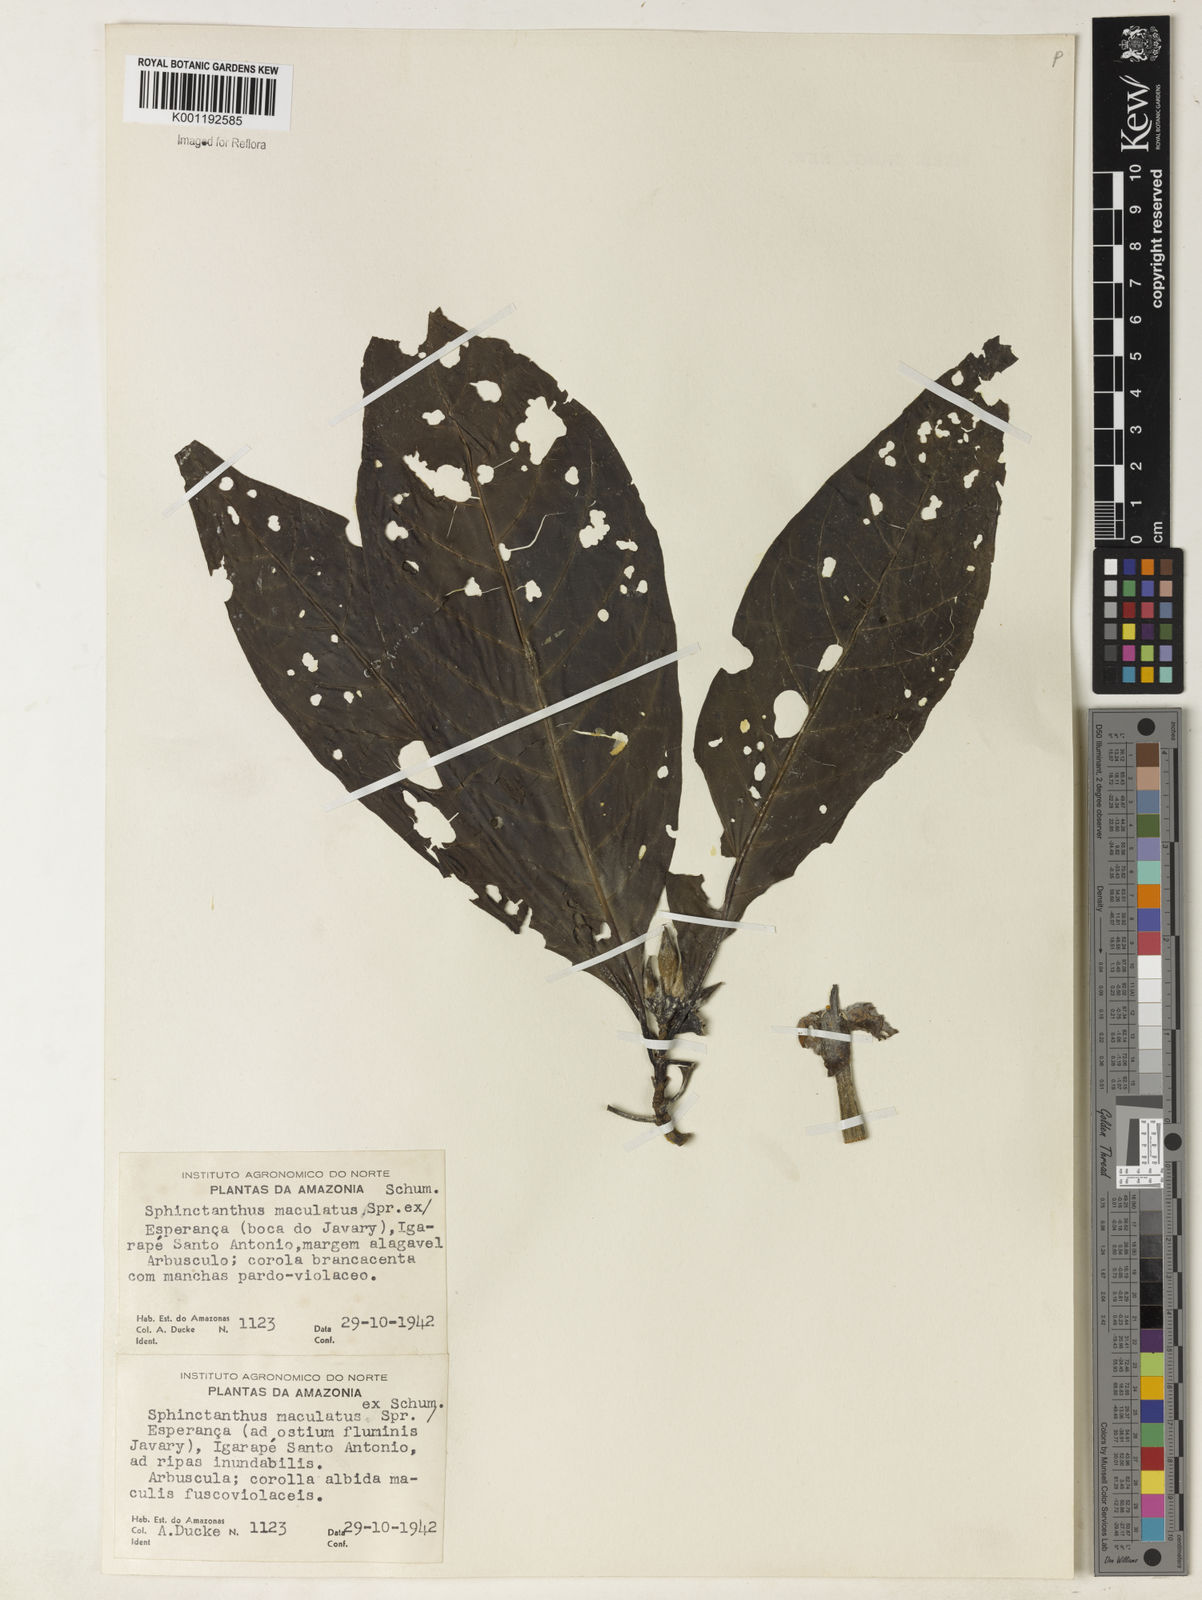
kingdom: Plantae
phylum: Tracheophyta
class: Magnoliopsida
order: Gentianales
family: Rubiaceae
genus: Sphinctanthus
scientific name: Sphinctanthus maculatus
